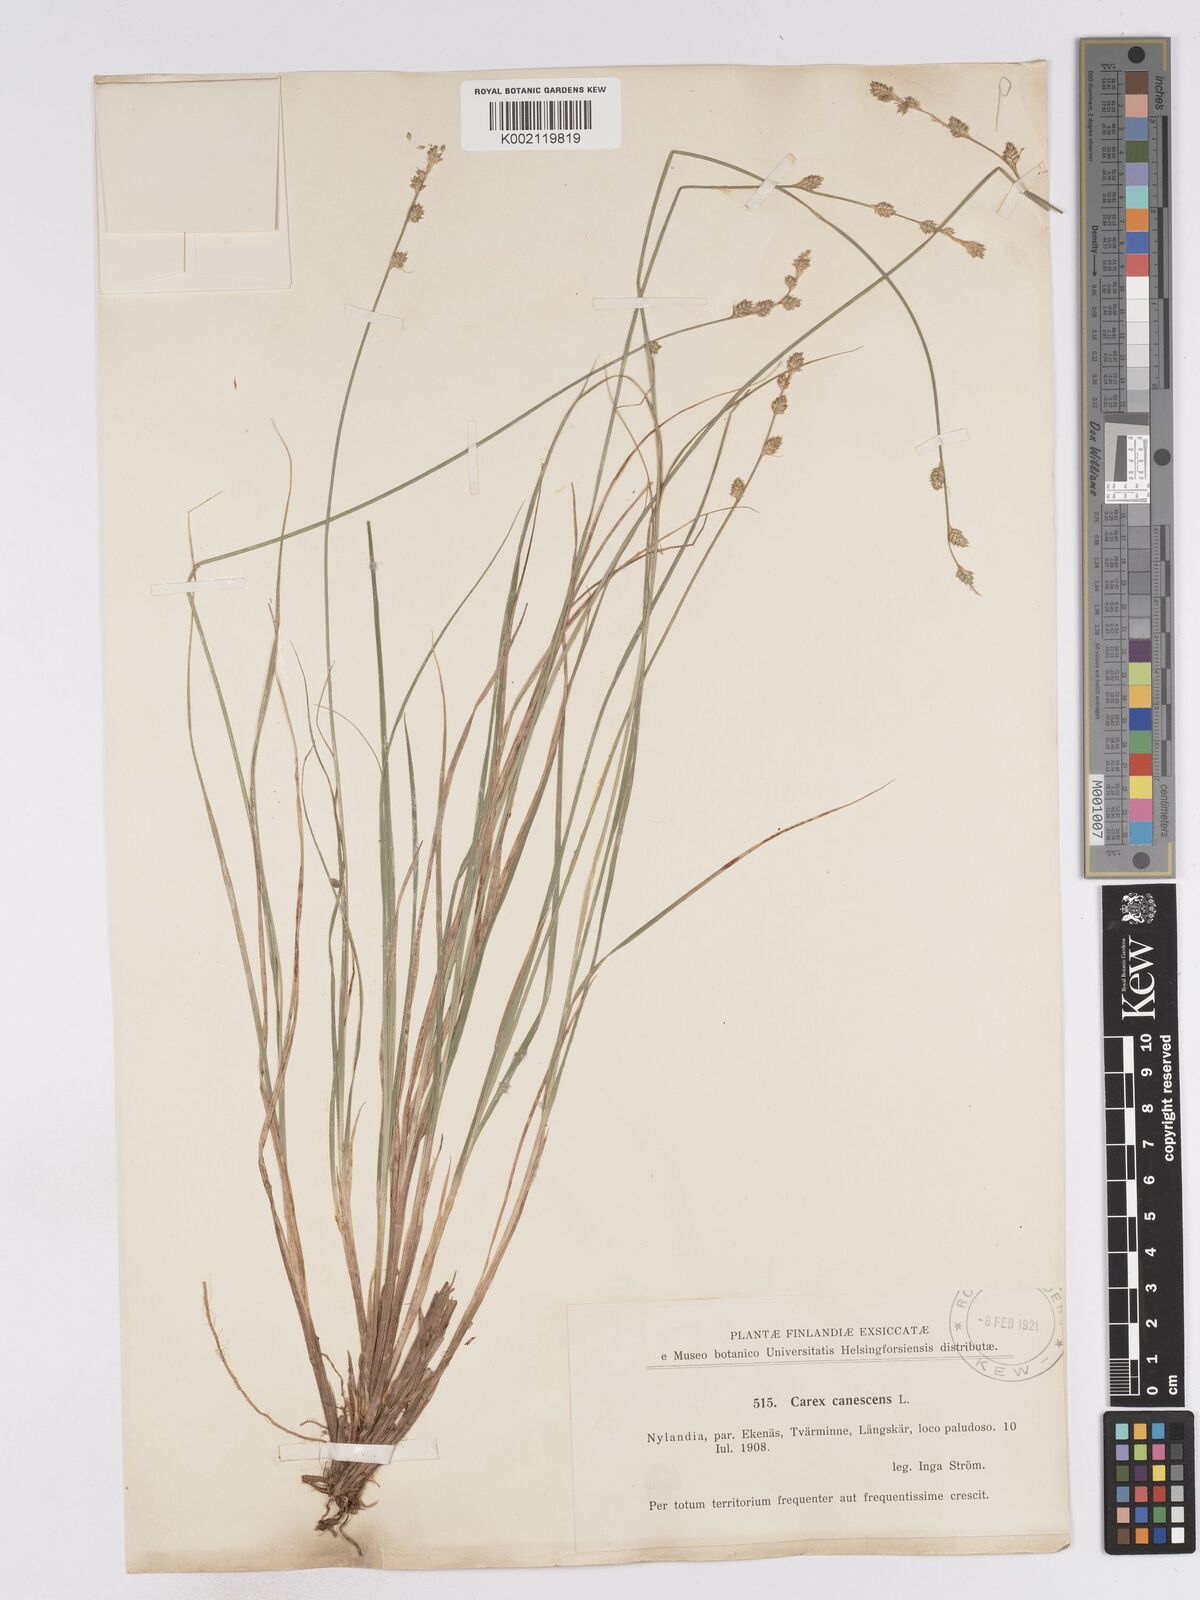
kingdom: Plantae
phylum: Tracheophyta
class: Liliopsida
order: Poales
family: Cyperaceae
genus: Carex
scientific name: Carex curta
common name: White sedge
